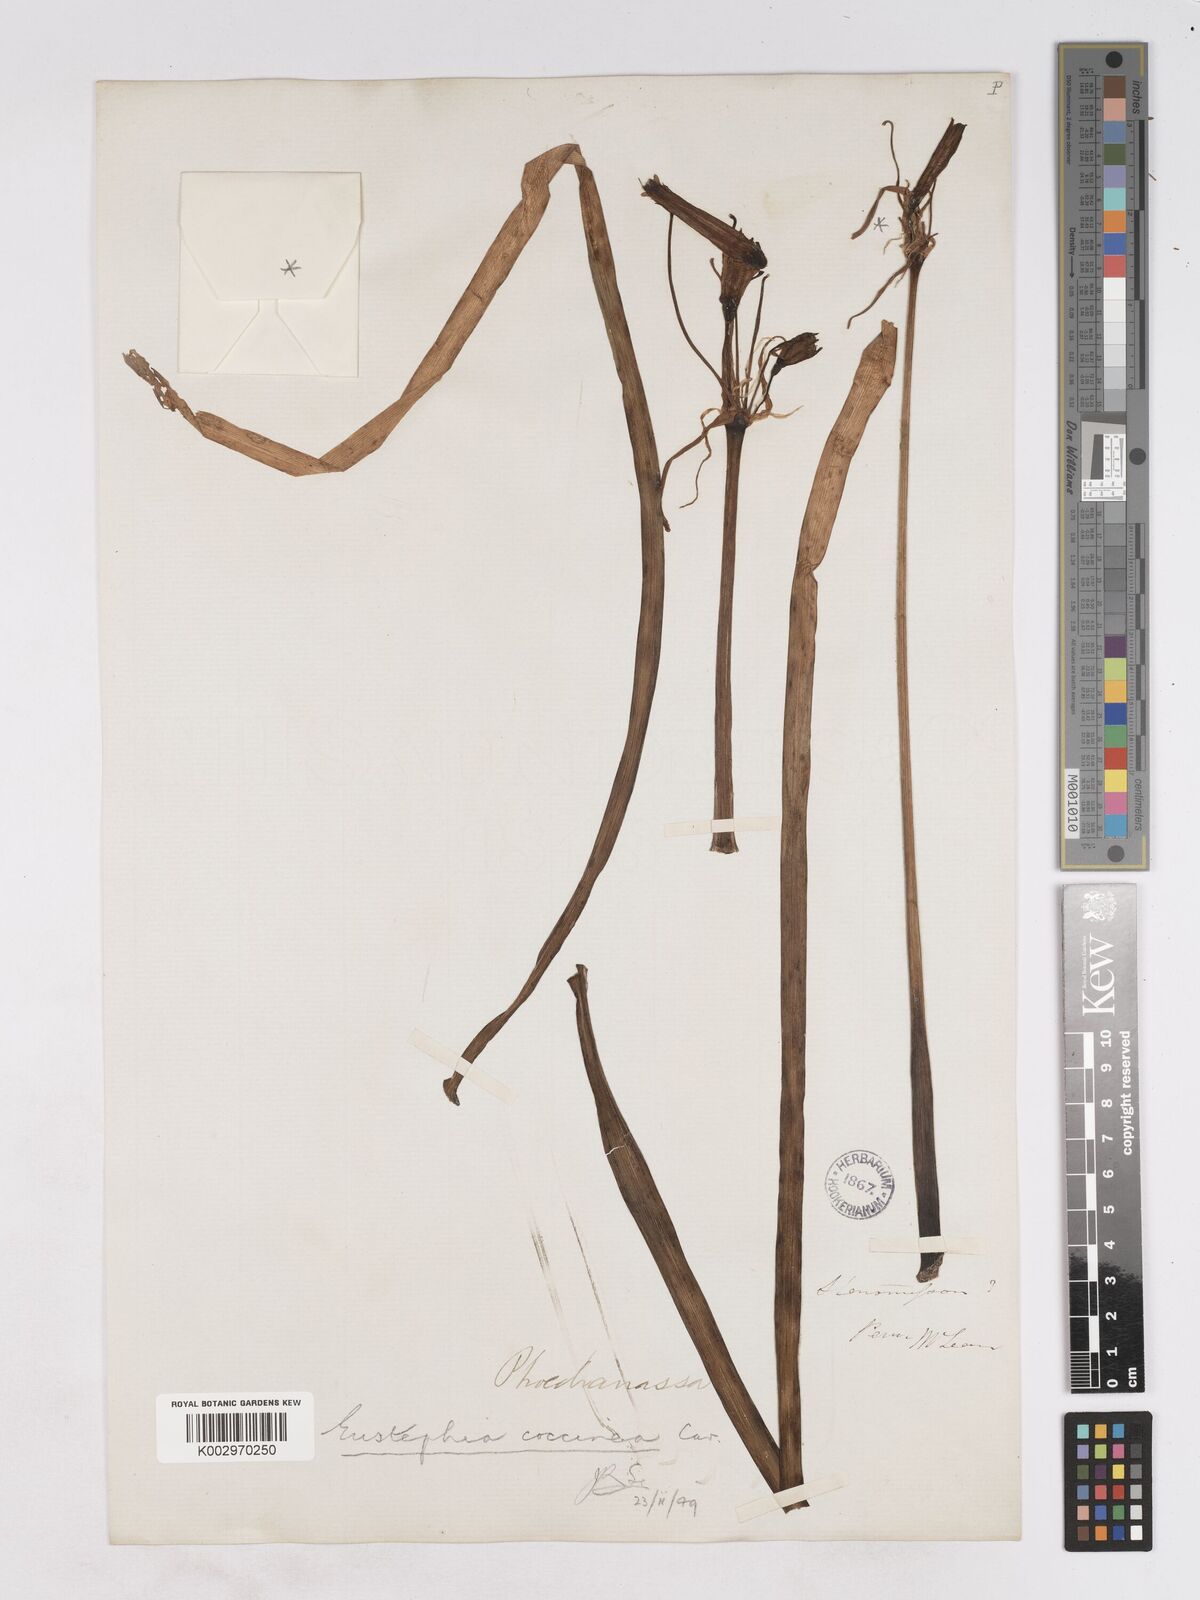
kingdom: Plantae
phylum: Tracheophyta
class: Liliopsida
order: Asparagales
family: Amaryllidaceae
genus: Eustephia
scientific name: Eustephia coccinea
